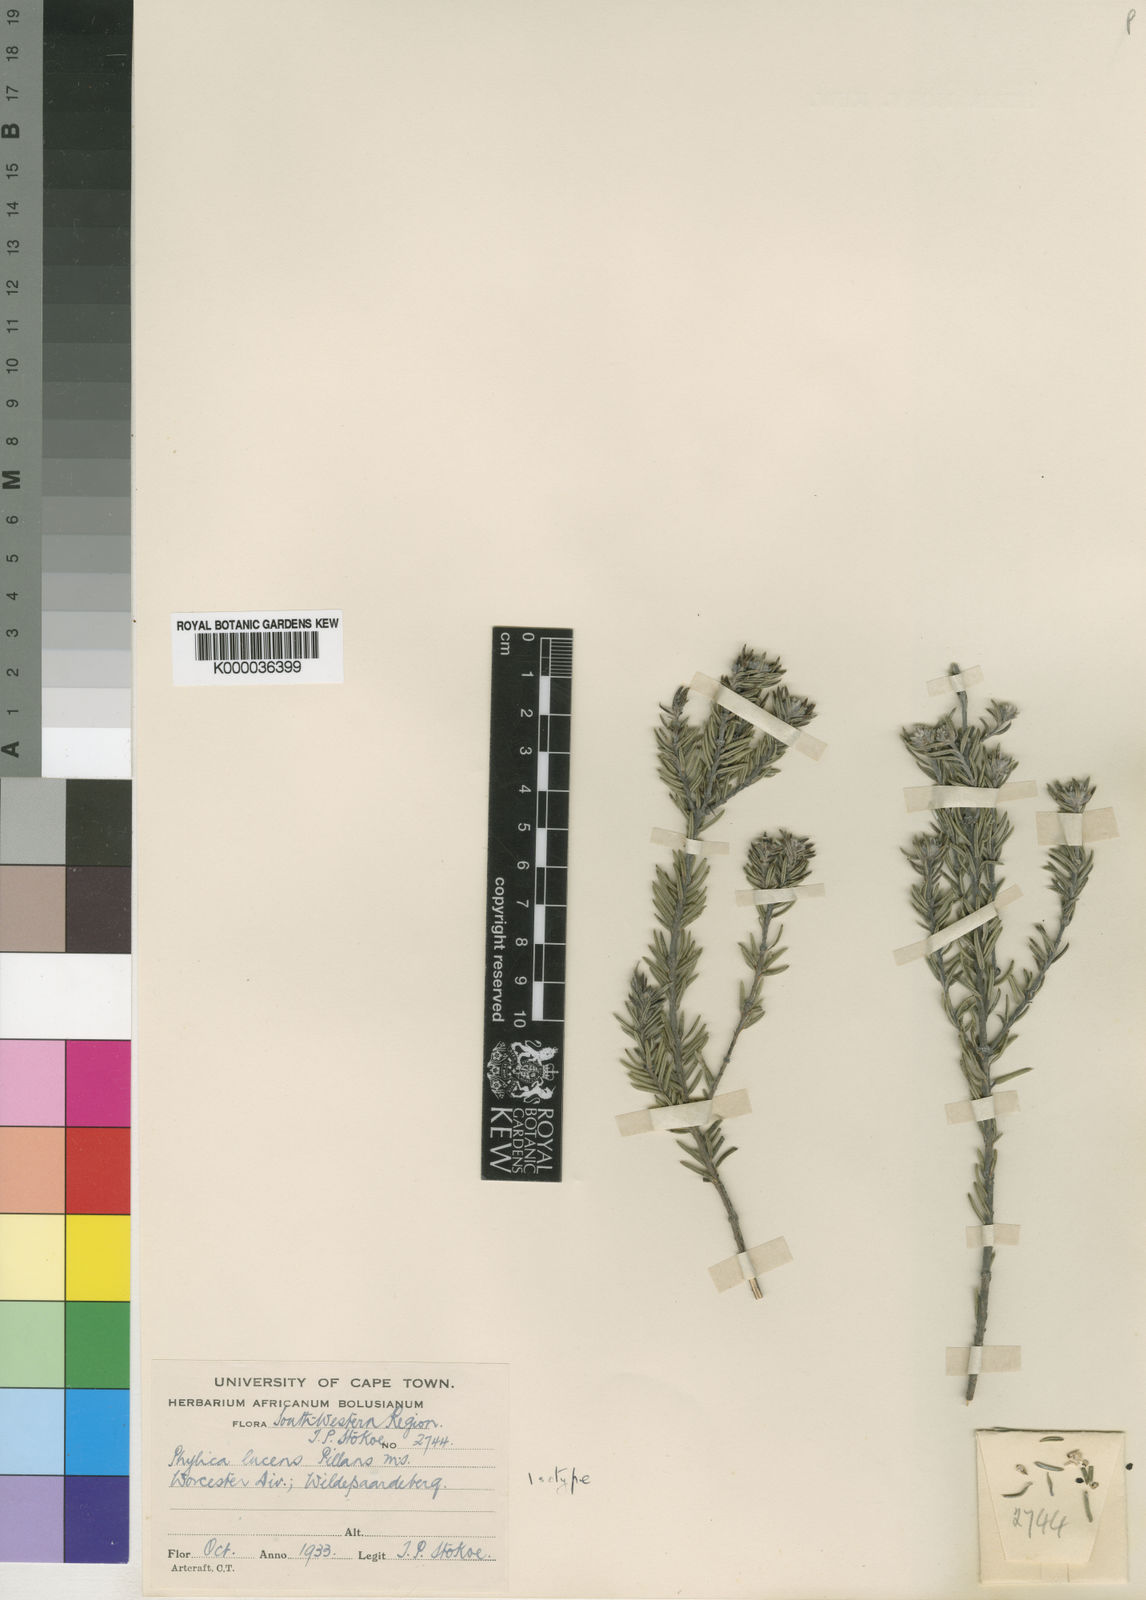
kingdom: Plantae
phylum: Tracheophyta
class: Magnoliopsida
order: Rosales
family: Rhamnaceae
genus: Phylica
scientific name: Phylica lucens
